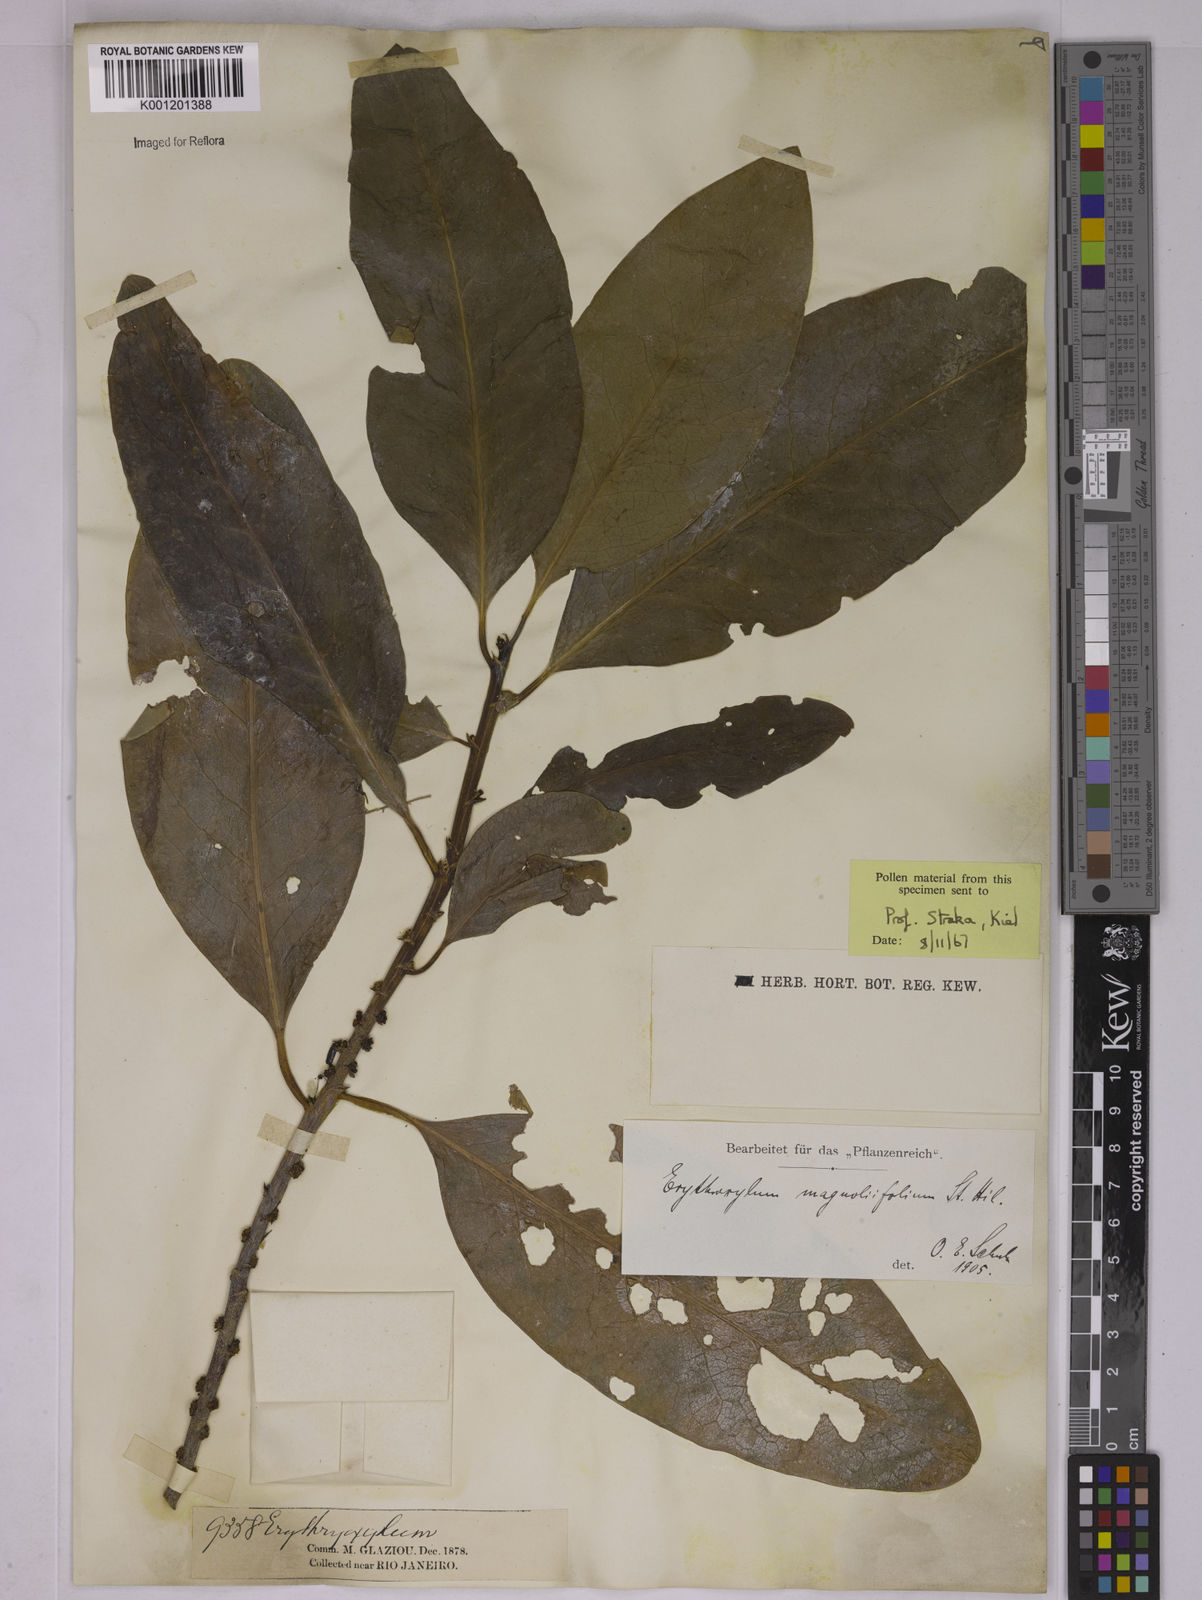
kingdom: Plantae
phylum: Tracheophyta
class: Magnoliopsida
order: Malpighiales
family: Erythroxylaceae
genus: Erythroxylum
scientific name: Erythroxylum magnoliifolium
